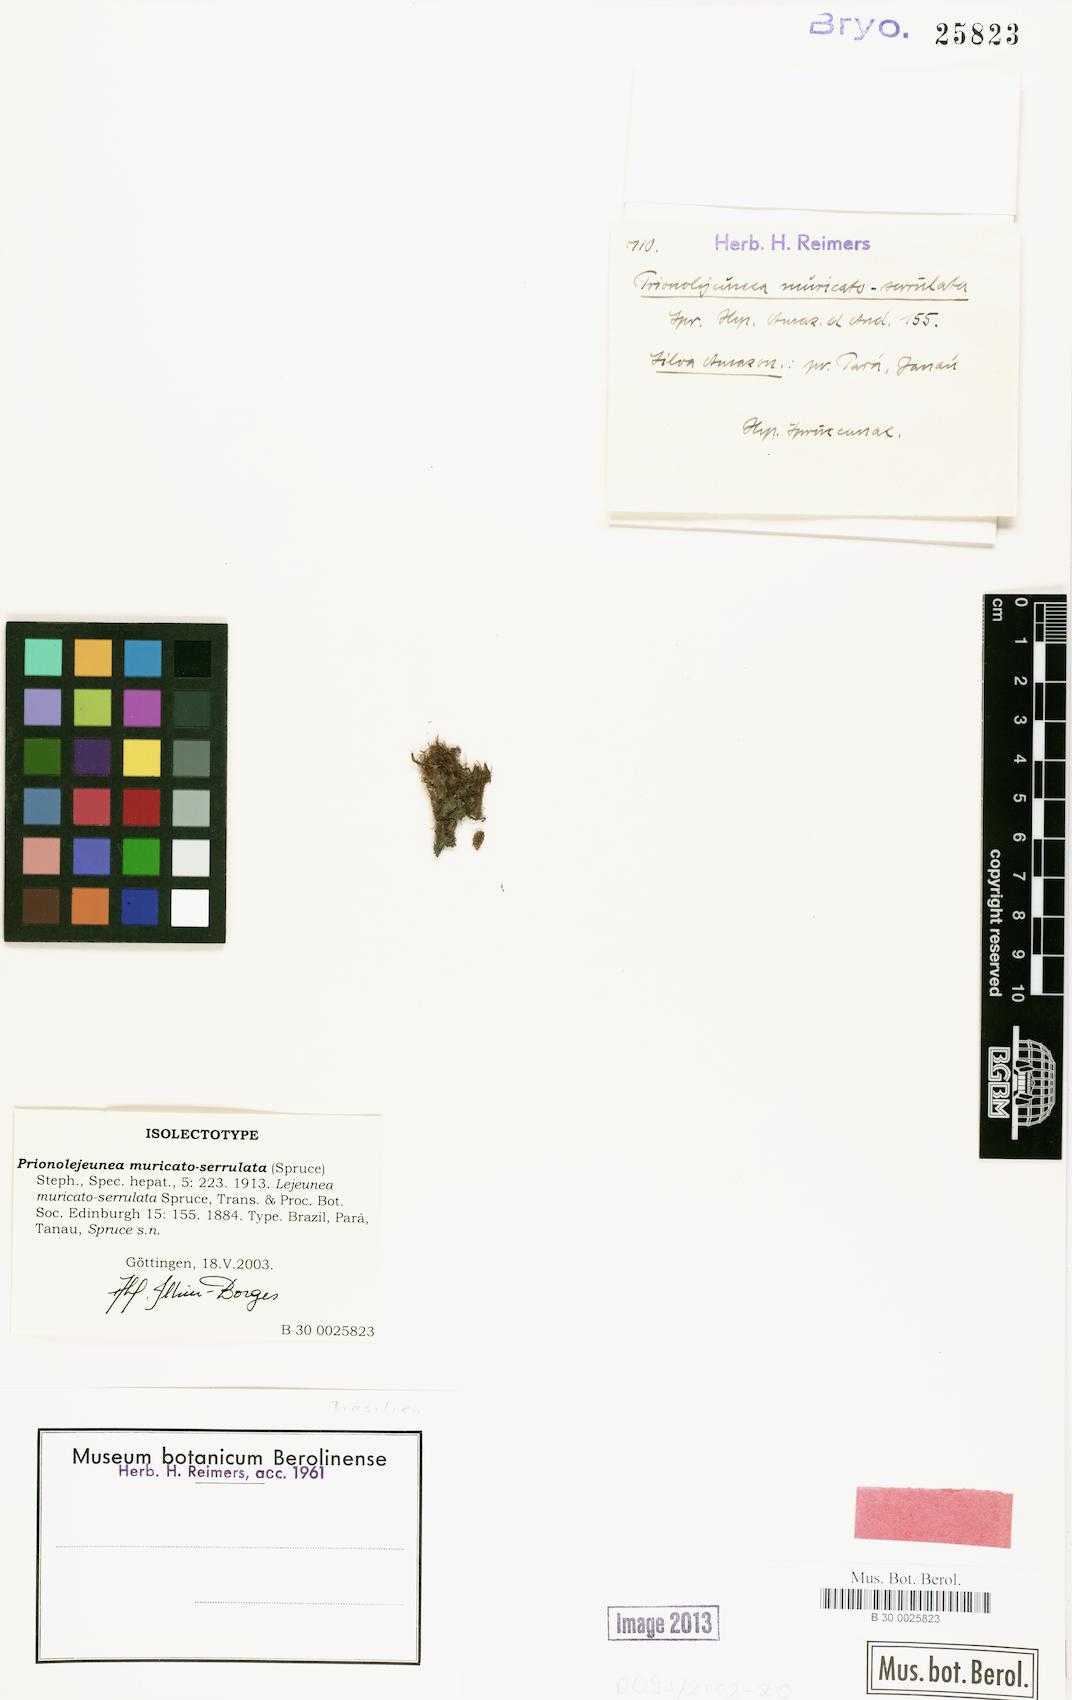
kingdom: Plantae
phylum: Marchantiophyta
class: Jungermanniopsida
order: Porellales
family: Lejeuneaceae
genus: Prionolejeunea
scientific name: Prionolejeunea muricatoserrulata
